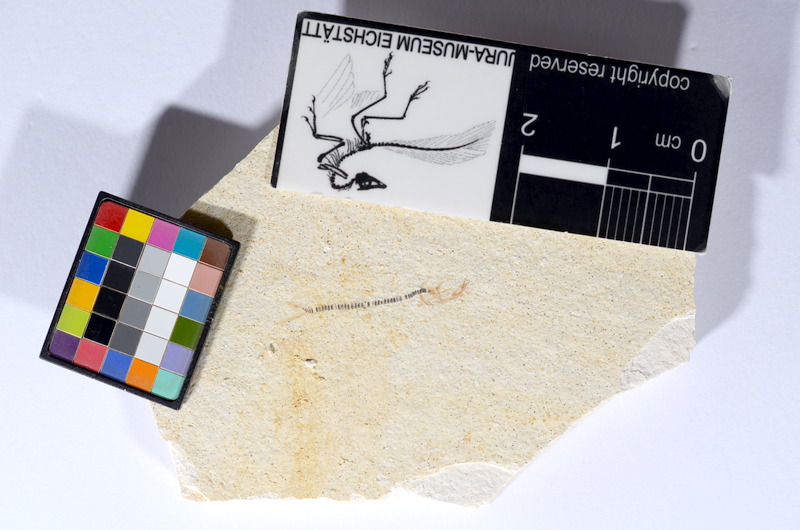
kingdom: Animalia
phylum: Chordata
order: Salmoniformes
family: Orthogonikleithridae
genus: Orthogonikleithrus
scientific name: Orthogonikleithrus hoelli
